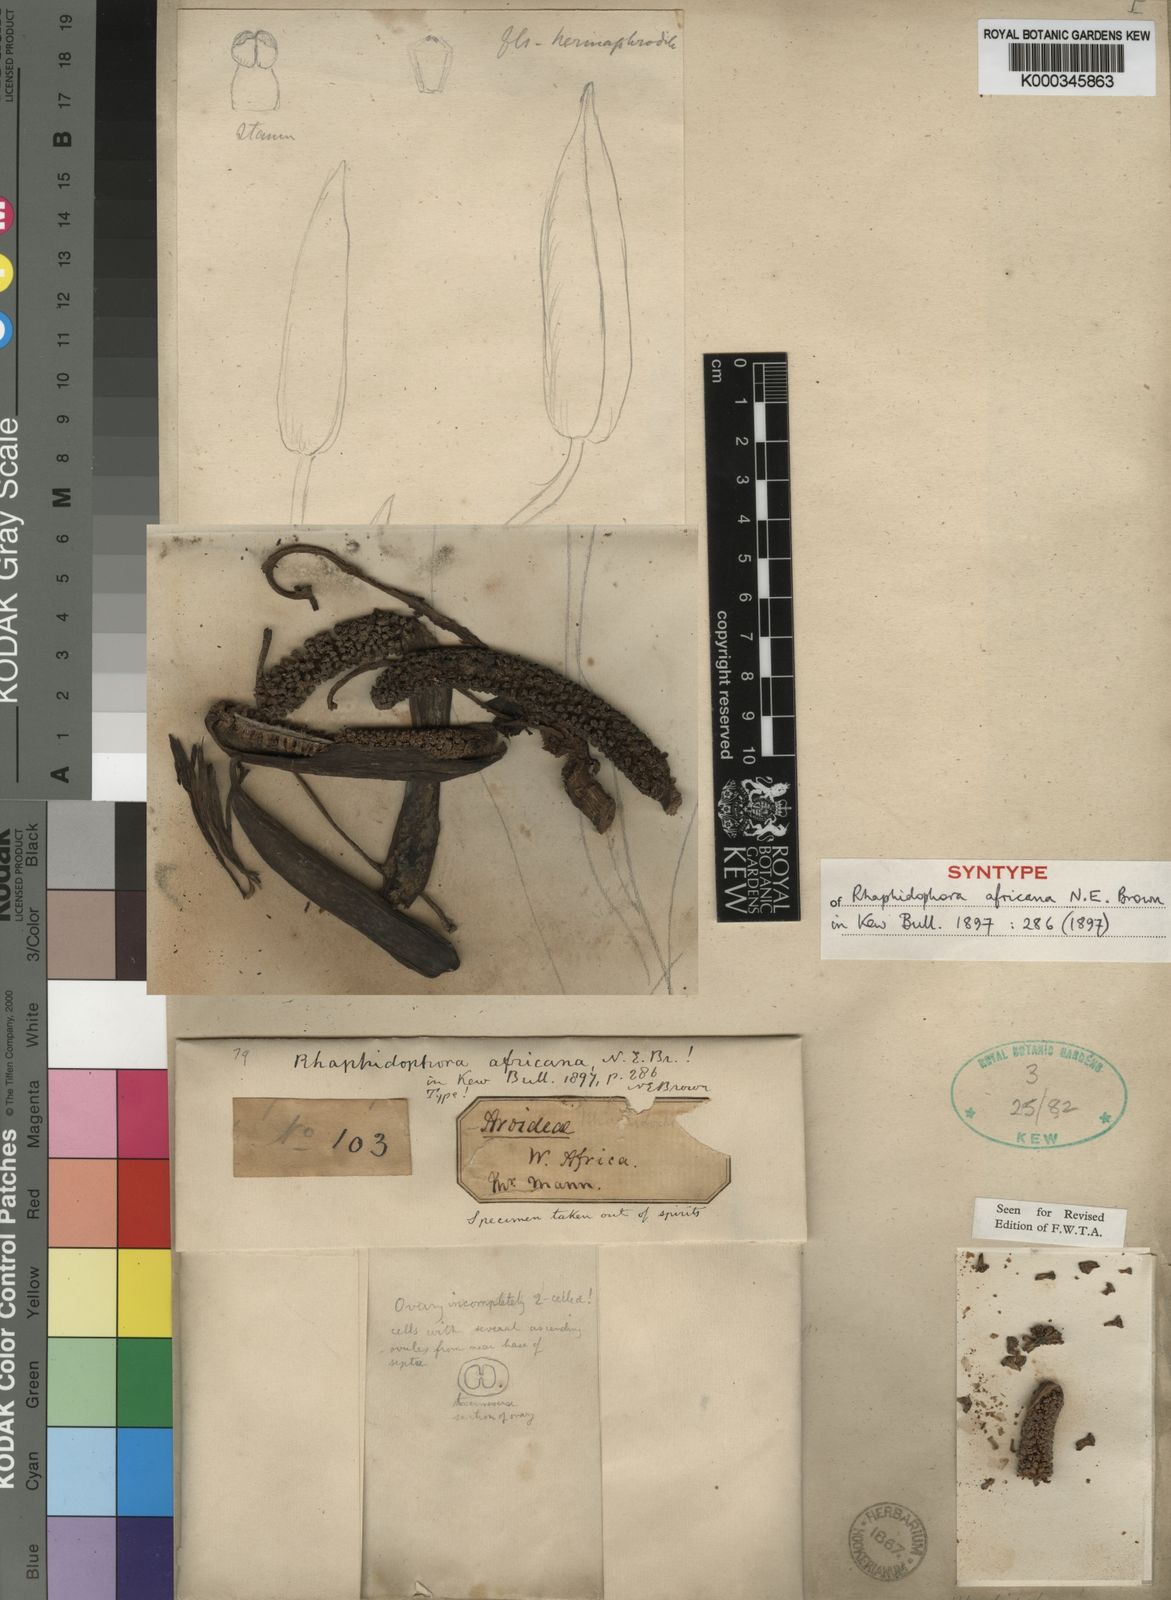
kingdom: Plantae
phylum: Tracheophyta
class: Liliopsida
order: Alismatales
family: Araceae
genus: Rhaphidophora
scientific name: Rhaphidophora africana
